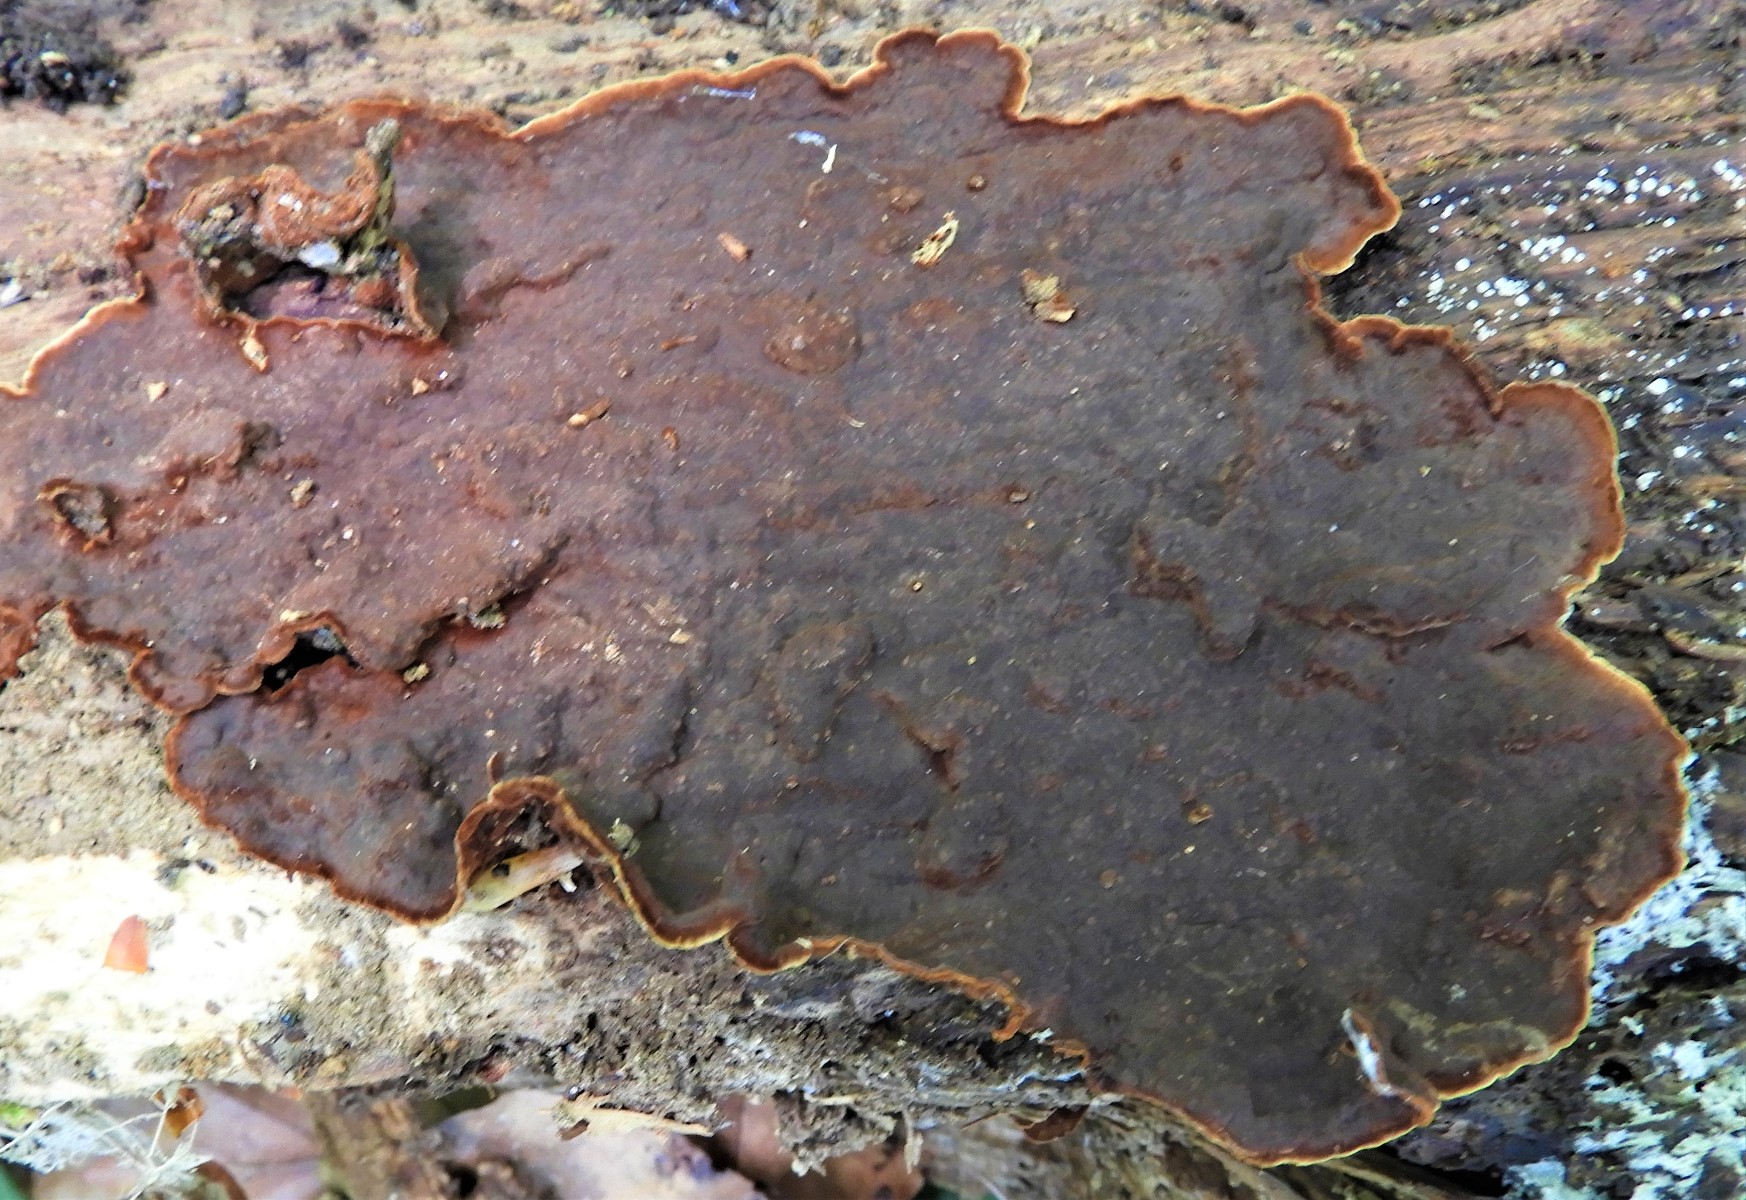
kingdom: Fungi
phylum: Basidiomycota
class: Agaricomycetes
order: Hymenochaetales
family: Hymenochaetaceae
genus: Hymenochaete
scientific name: Hymenochaete rubiginosa
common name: stiv ruslædersvamp
